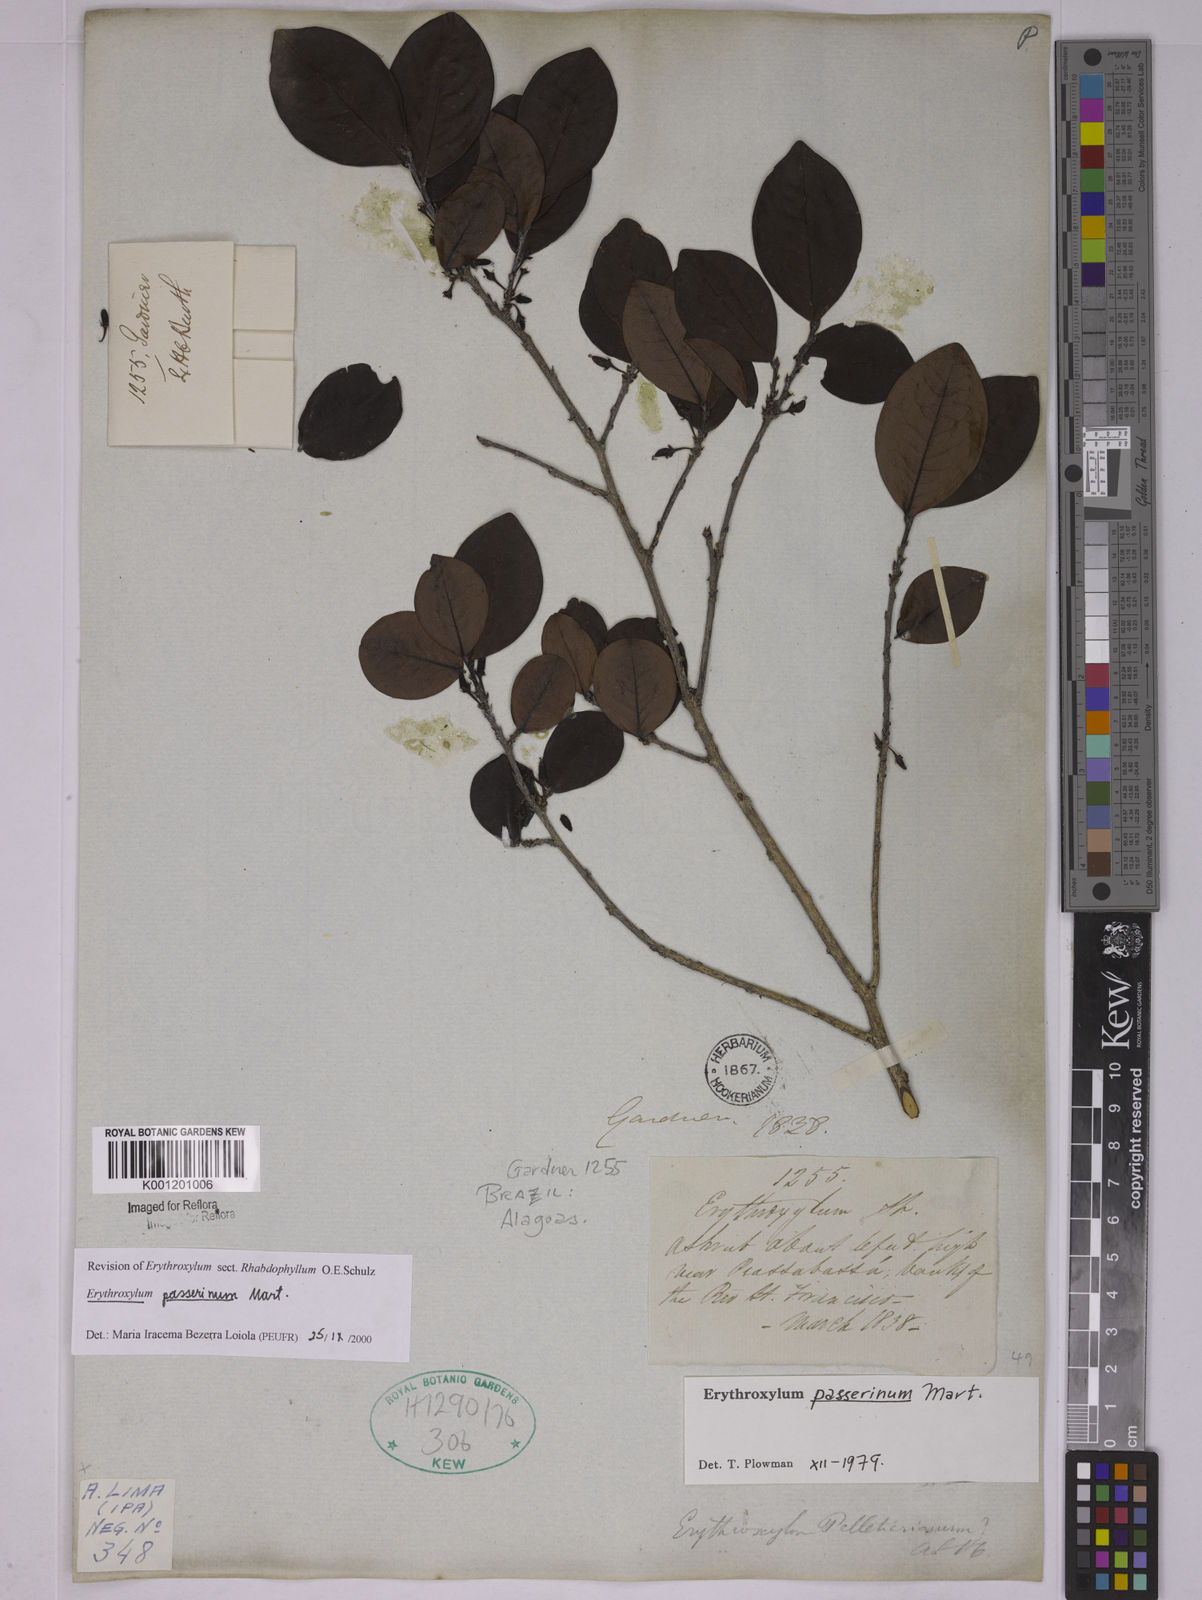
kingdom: Plantae
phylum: Tracheophyta
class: Magnoliopsida
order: Malpighiales
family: Erythroxylaceae
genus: Erythroxylum
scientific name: Erythroxylum passerinum
